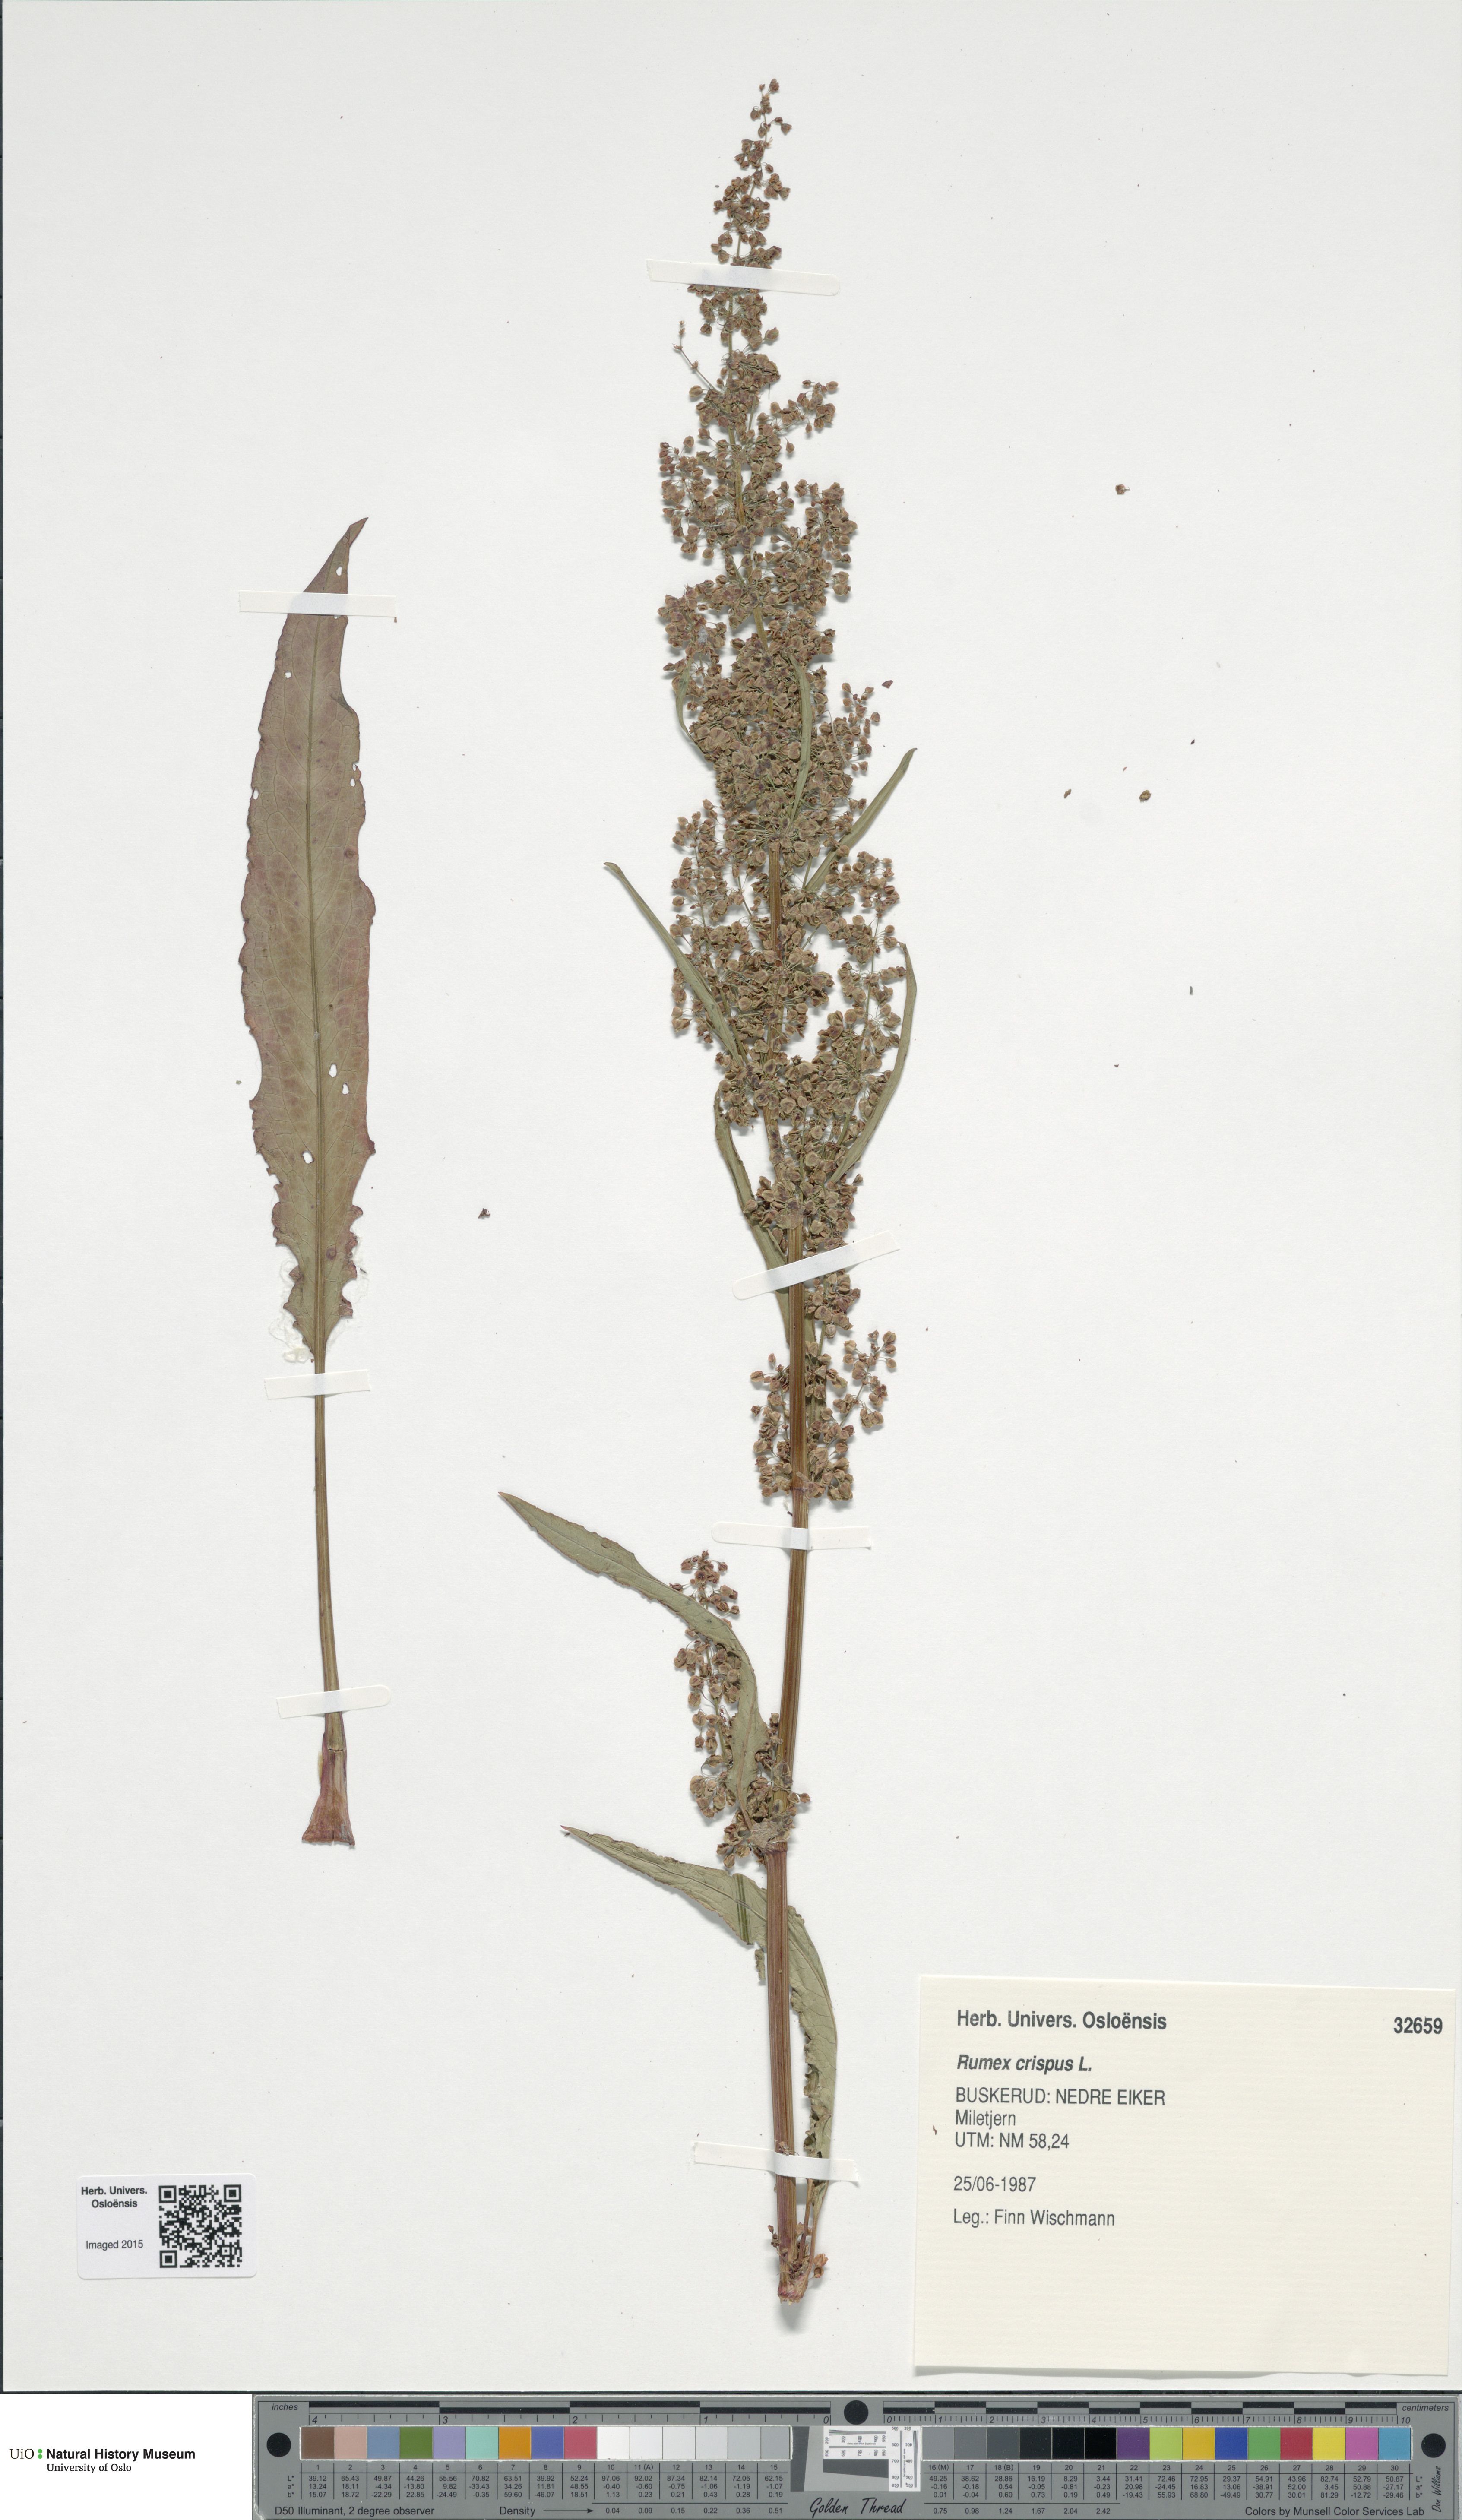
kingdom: Plantae
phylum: Tracheophyta
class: Magnoliopsida
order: Caryophyllales
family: Polygonaceae
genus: Rumex
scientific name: Rumex crispus
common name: Curled dock
